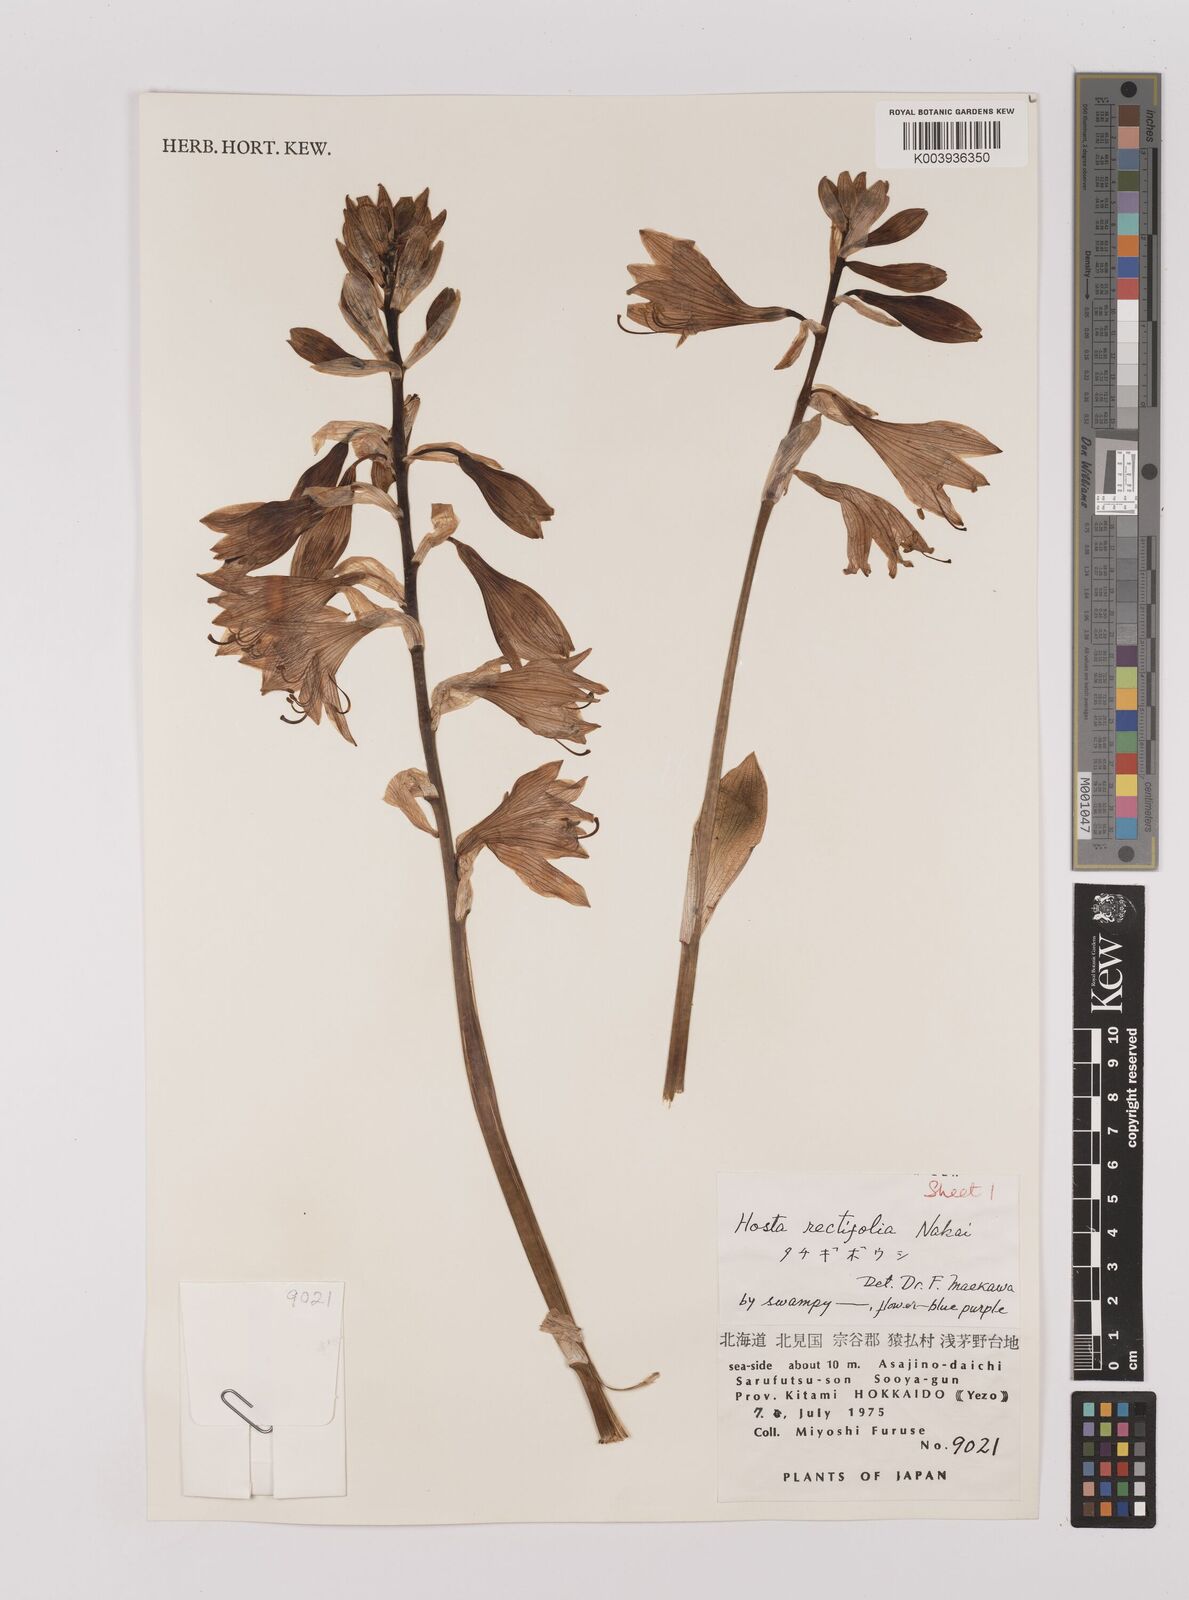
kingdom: Plantae
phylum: Tracheophyta
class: Liliopsida
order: Asparagales
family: Asparagaceae
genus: Hosta
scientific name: Hosta sieboldii
